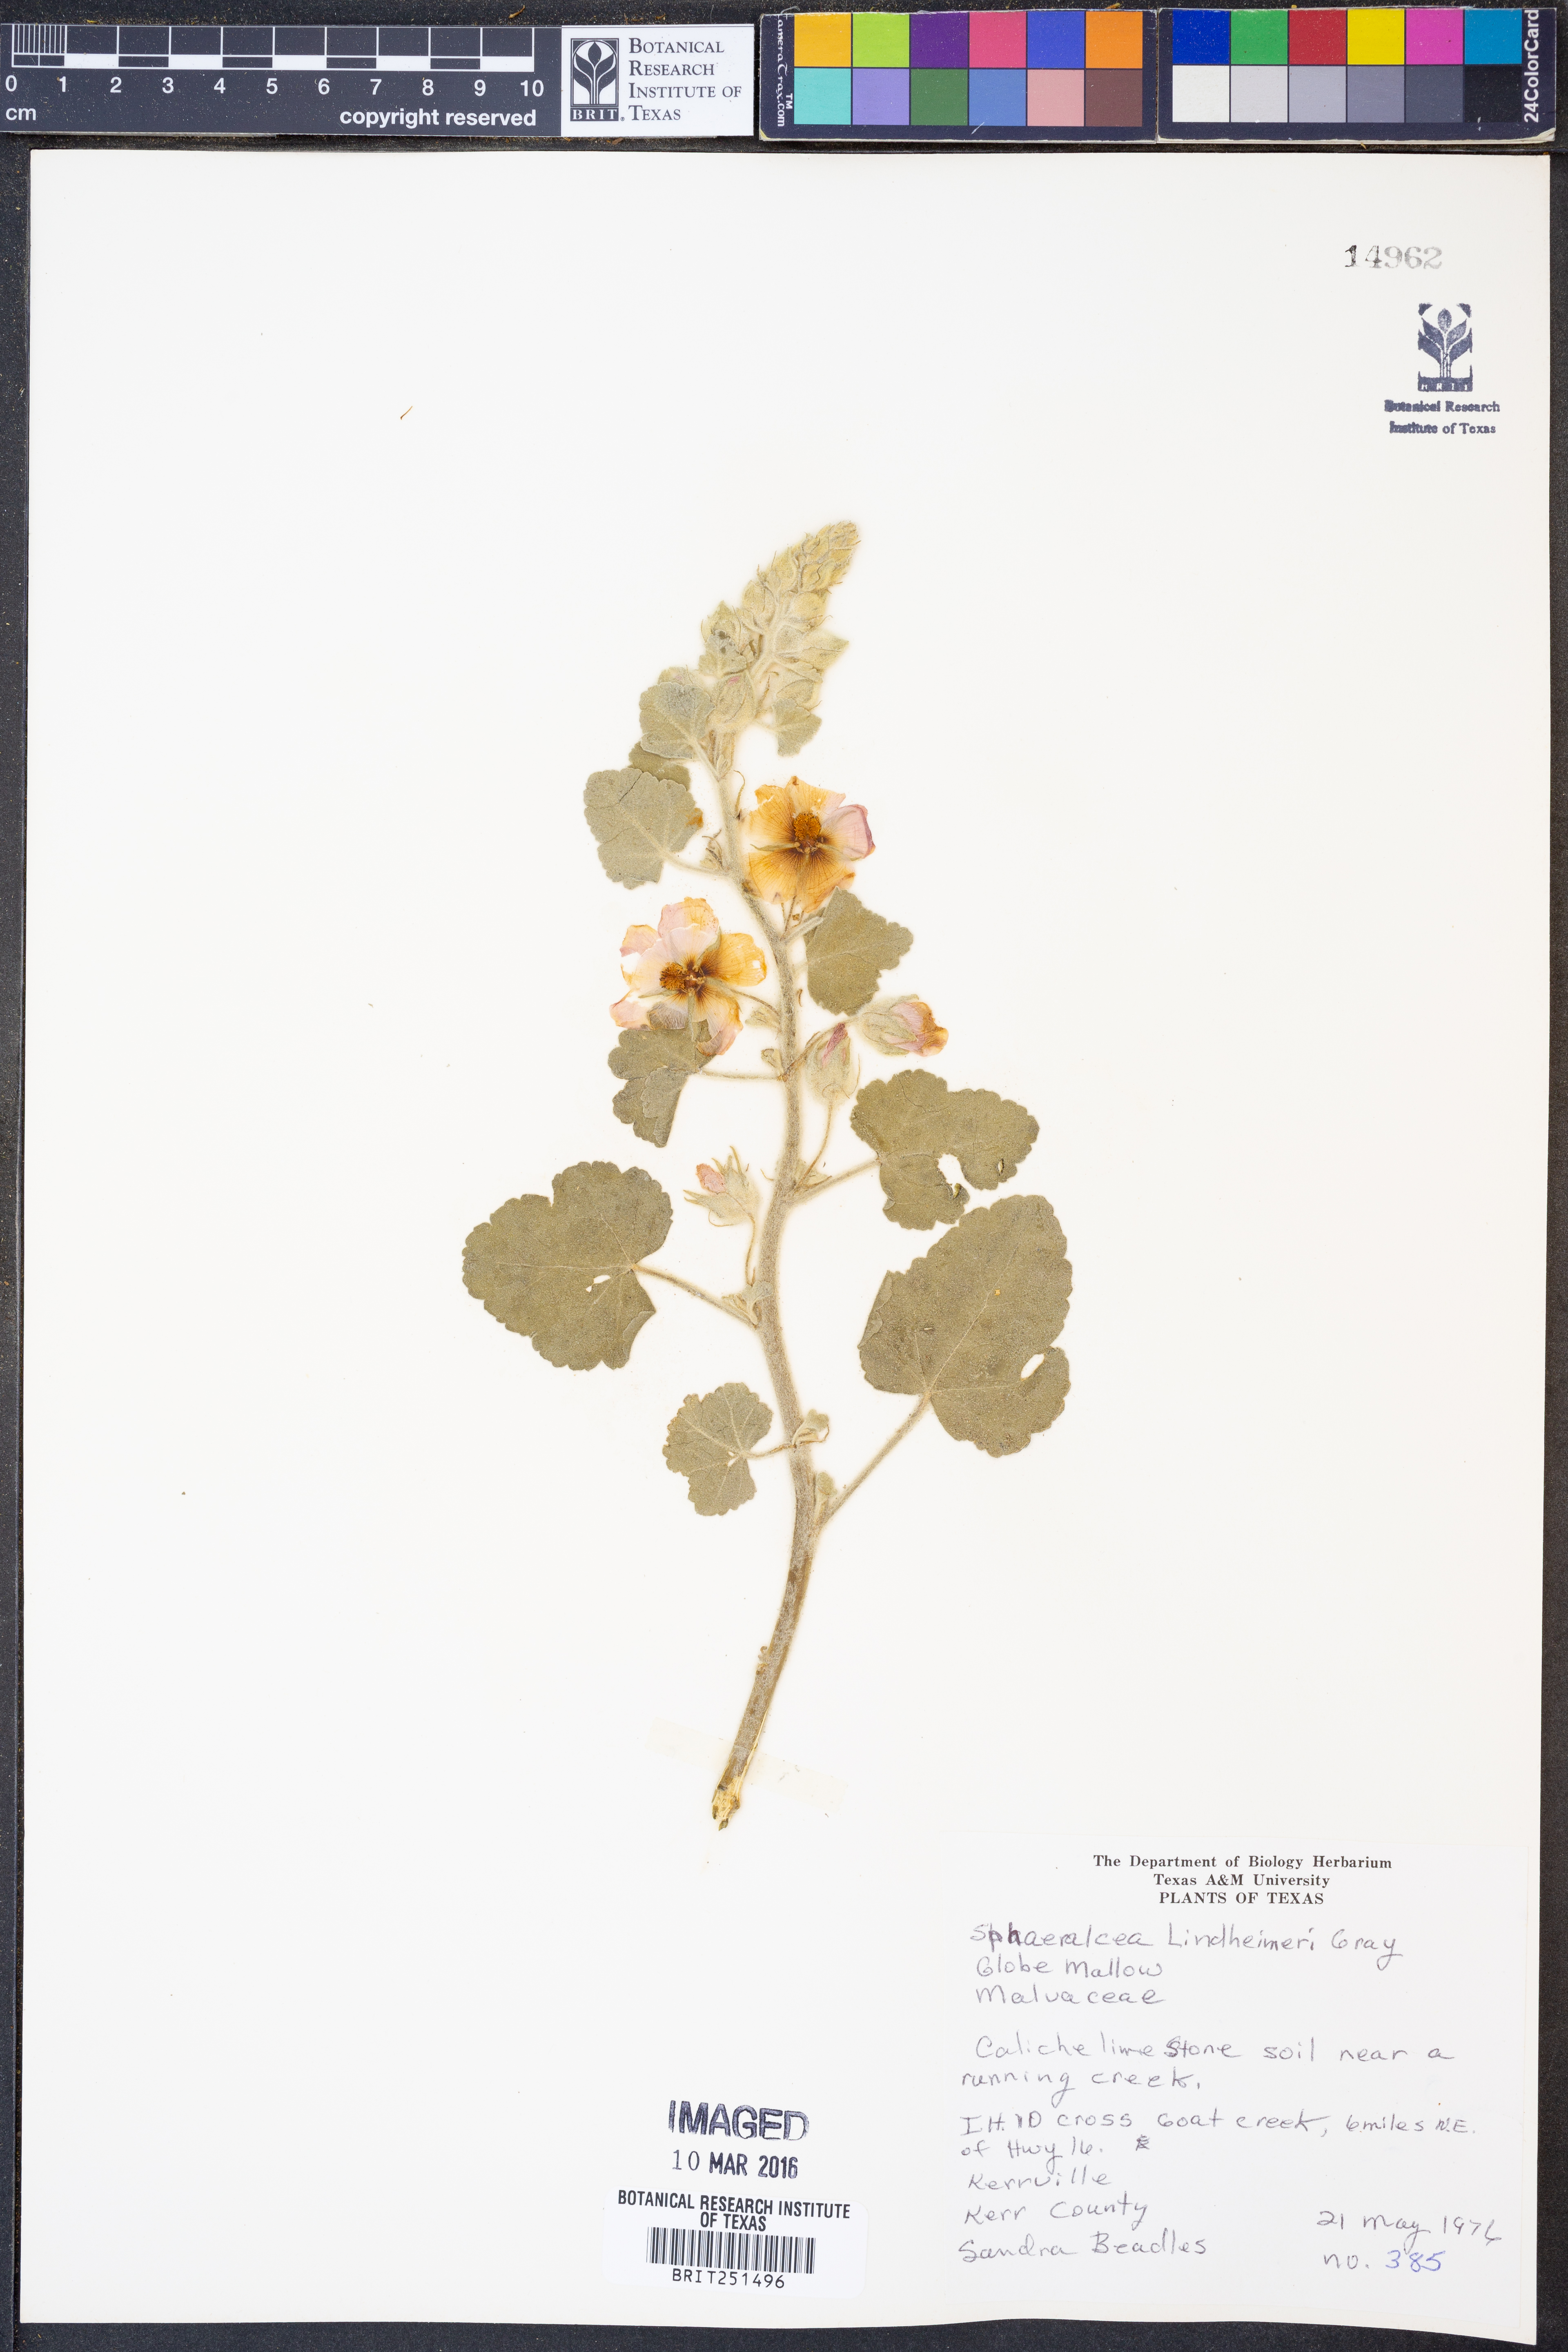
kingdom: Plantae
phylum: Tracheophyta
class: Magnoliopsida
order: Malvales
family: Malvaceae
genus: Sphaeralcea
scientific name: Sphaeralcea lindheimeri
